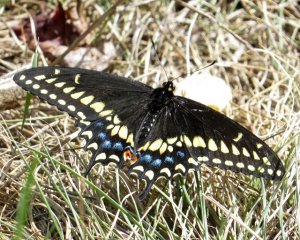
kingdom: Animalia
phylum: Arthropoda
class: Insecta
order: Lepidoptera
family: Papilionidae
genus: Papilio
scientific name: Papilio polyxenes
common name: Black Swallowtail
